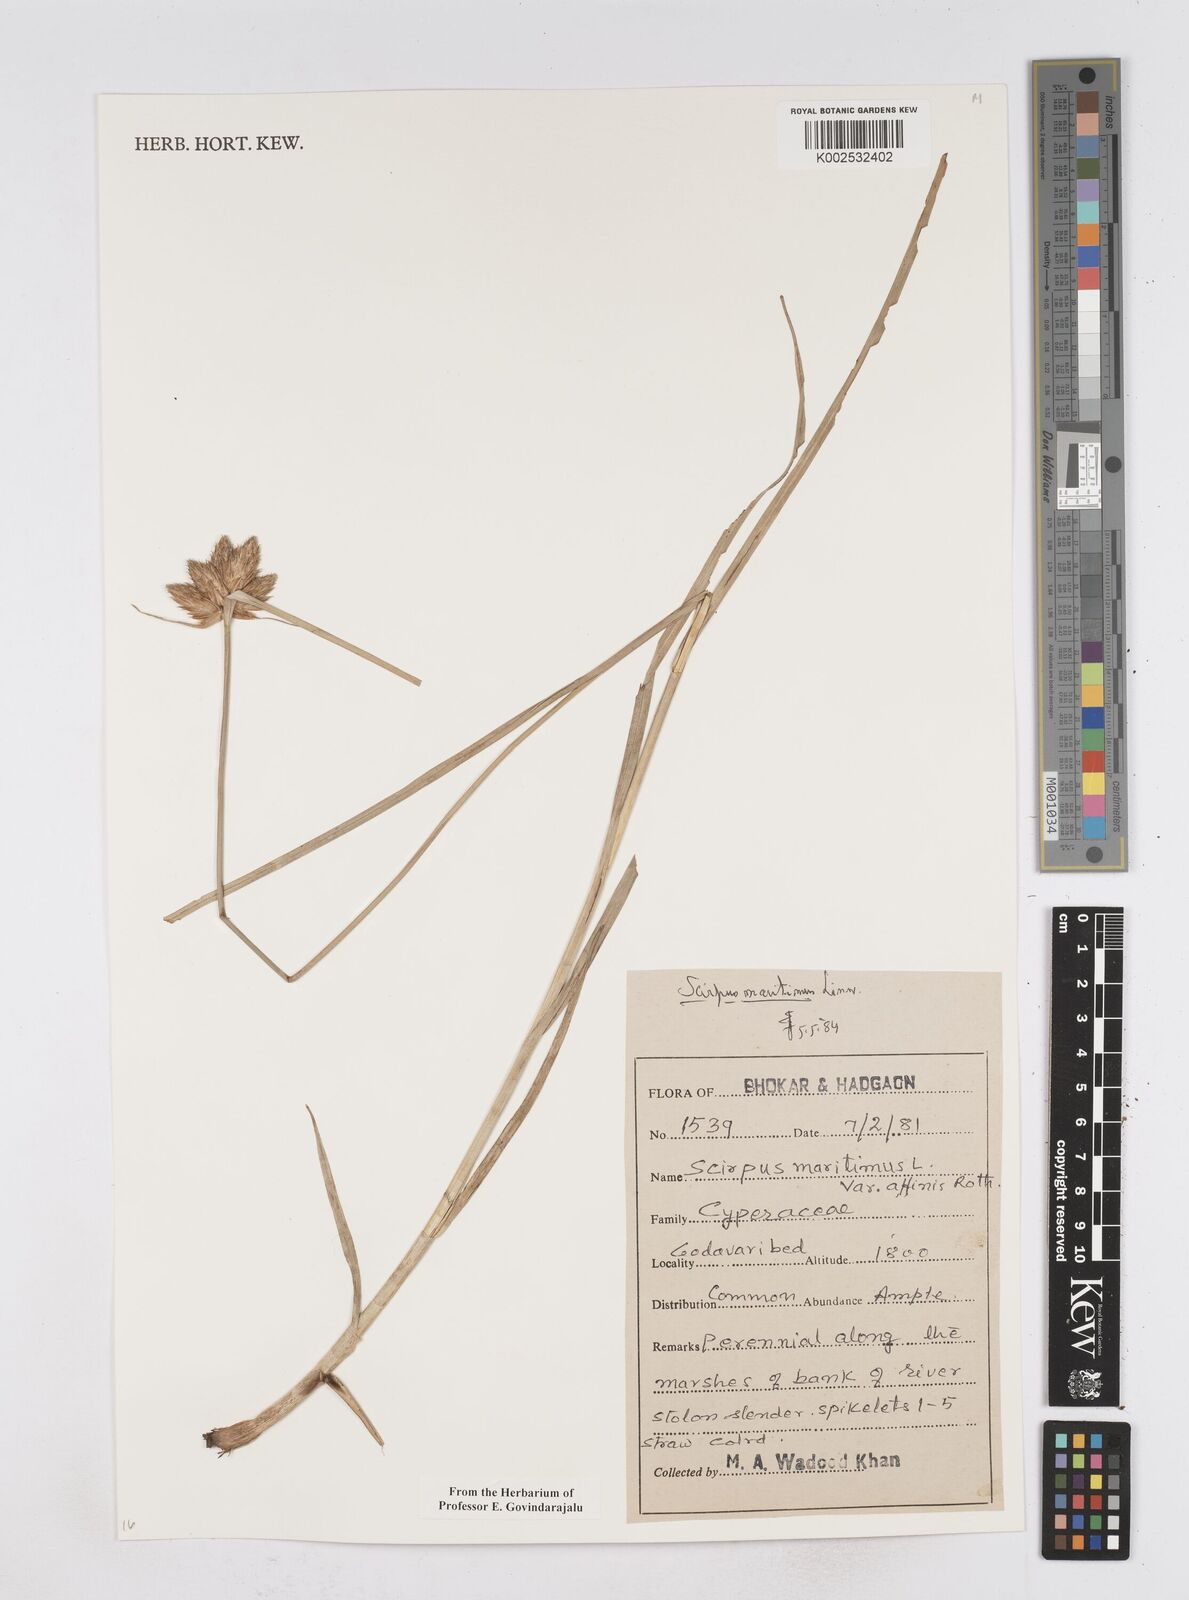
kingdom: Plantae
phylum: Tracheophyta
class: Liliopsida
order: Poales
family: Cyperaceae
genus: Bolboschoenus
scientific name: Bolboschoenus maritimus
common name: Sea club-rush
